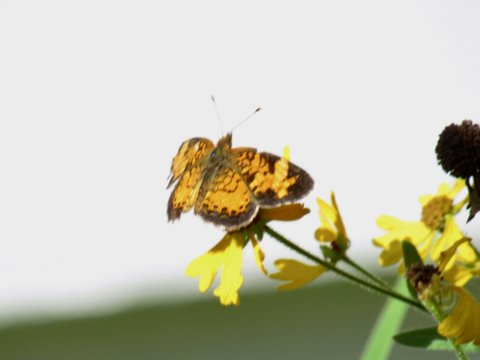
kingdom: Animalia
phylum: Arthropoda
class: Insecta
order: Lepidoptera
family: Nymphalidae
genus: Phyciodes
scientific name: Phyciodes
